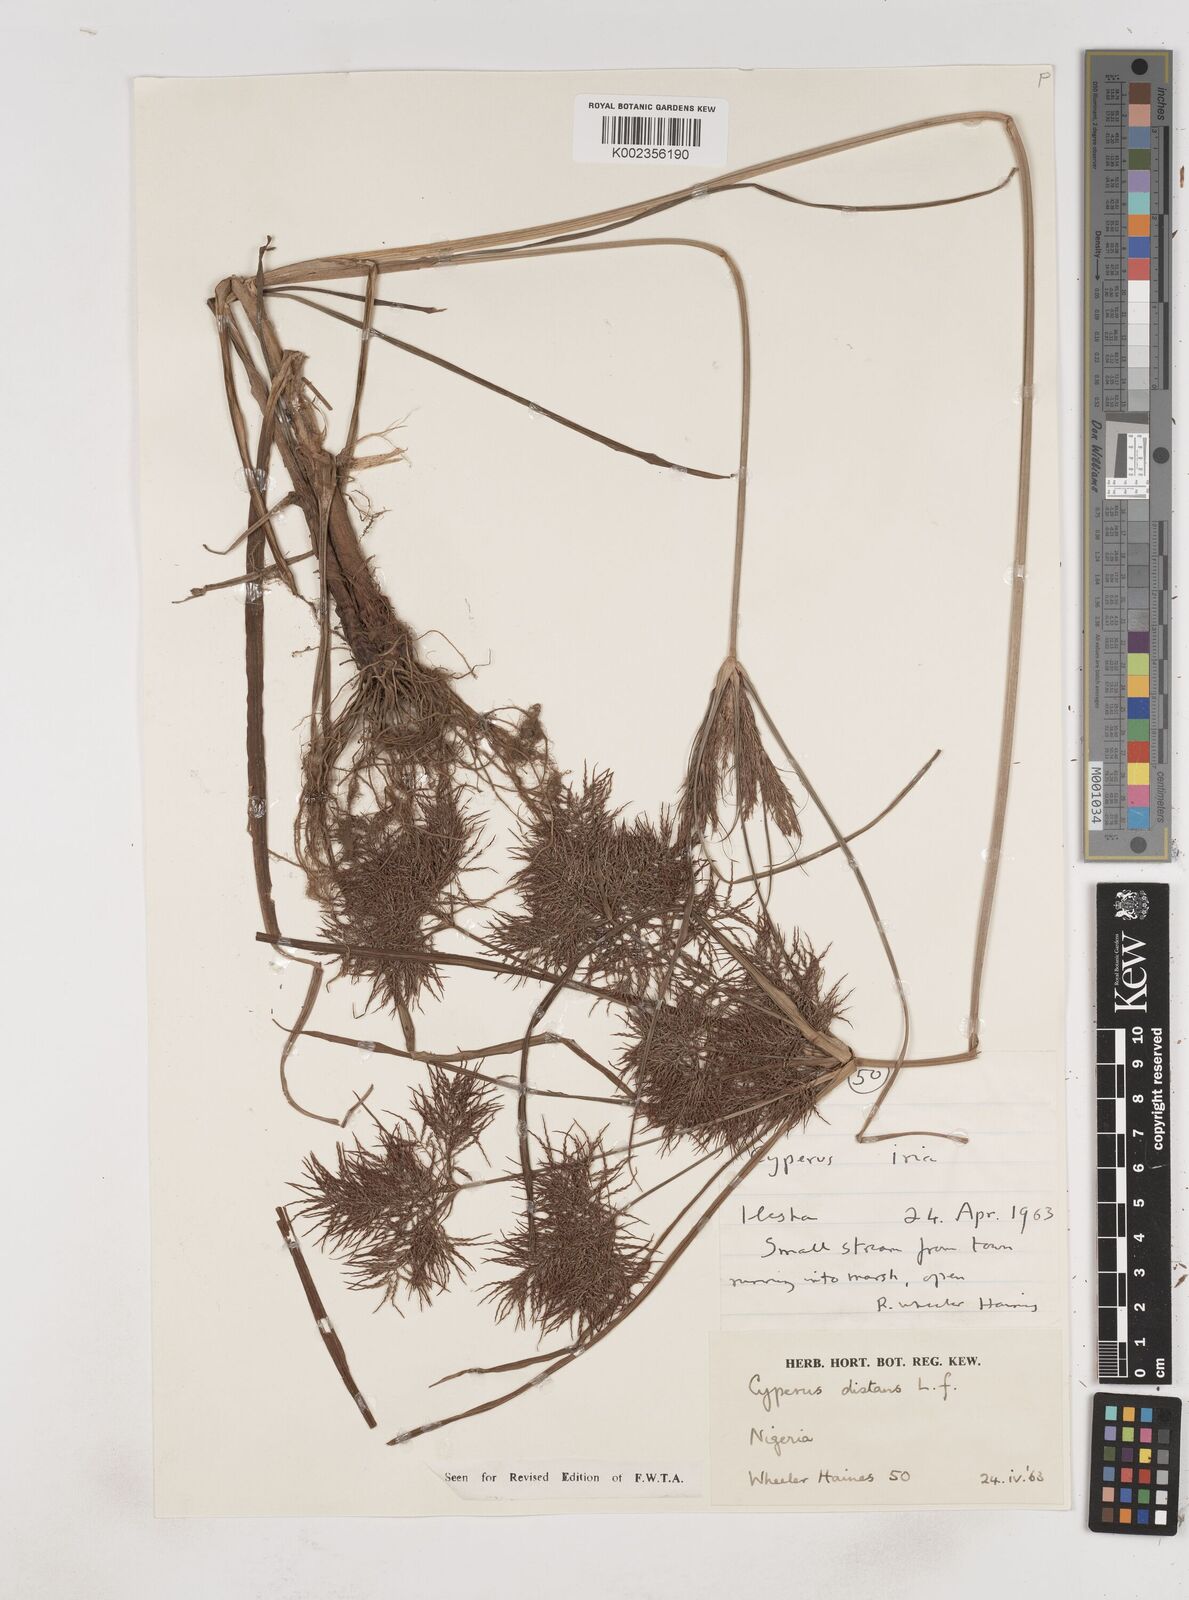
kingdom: Plantae
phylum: Tracheophyta
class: Liliopsida
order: Poales
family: Cyperaceae
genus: Cyperus
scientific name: Cyperus distans
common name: Slender cyperus
